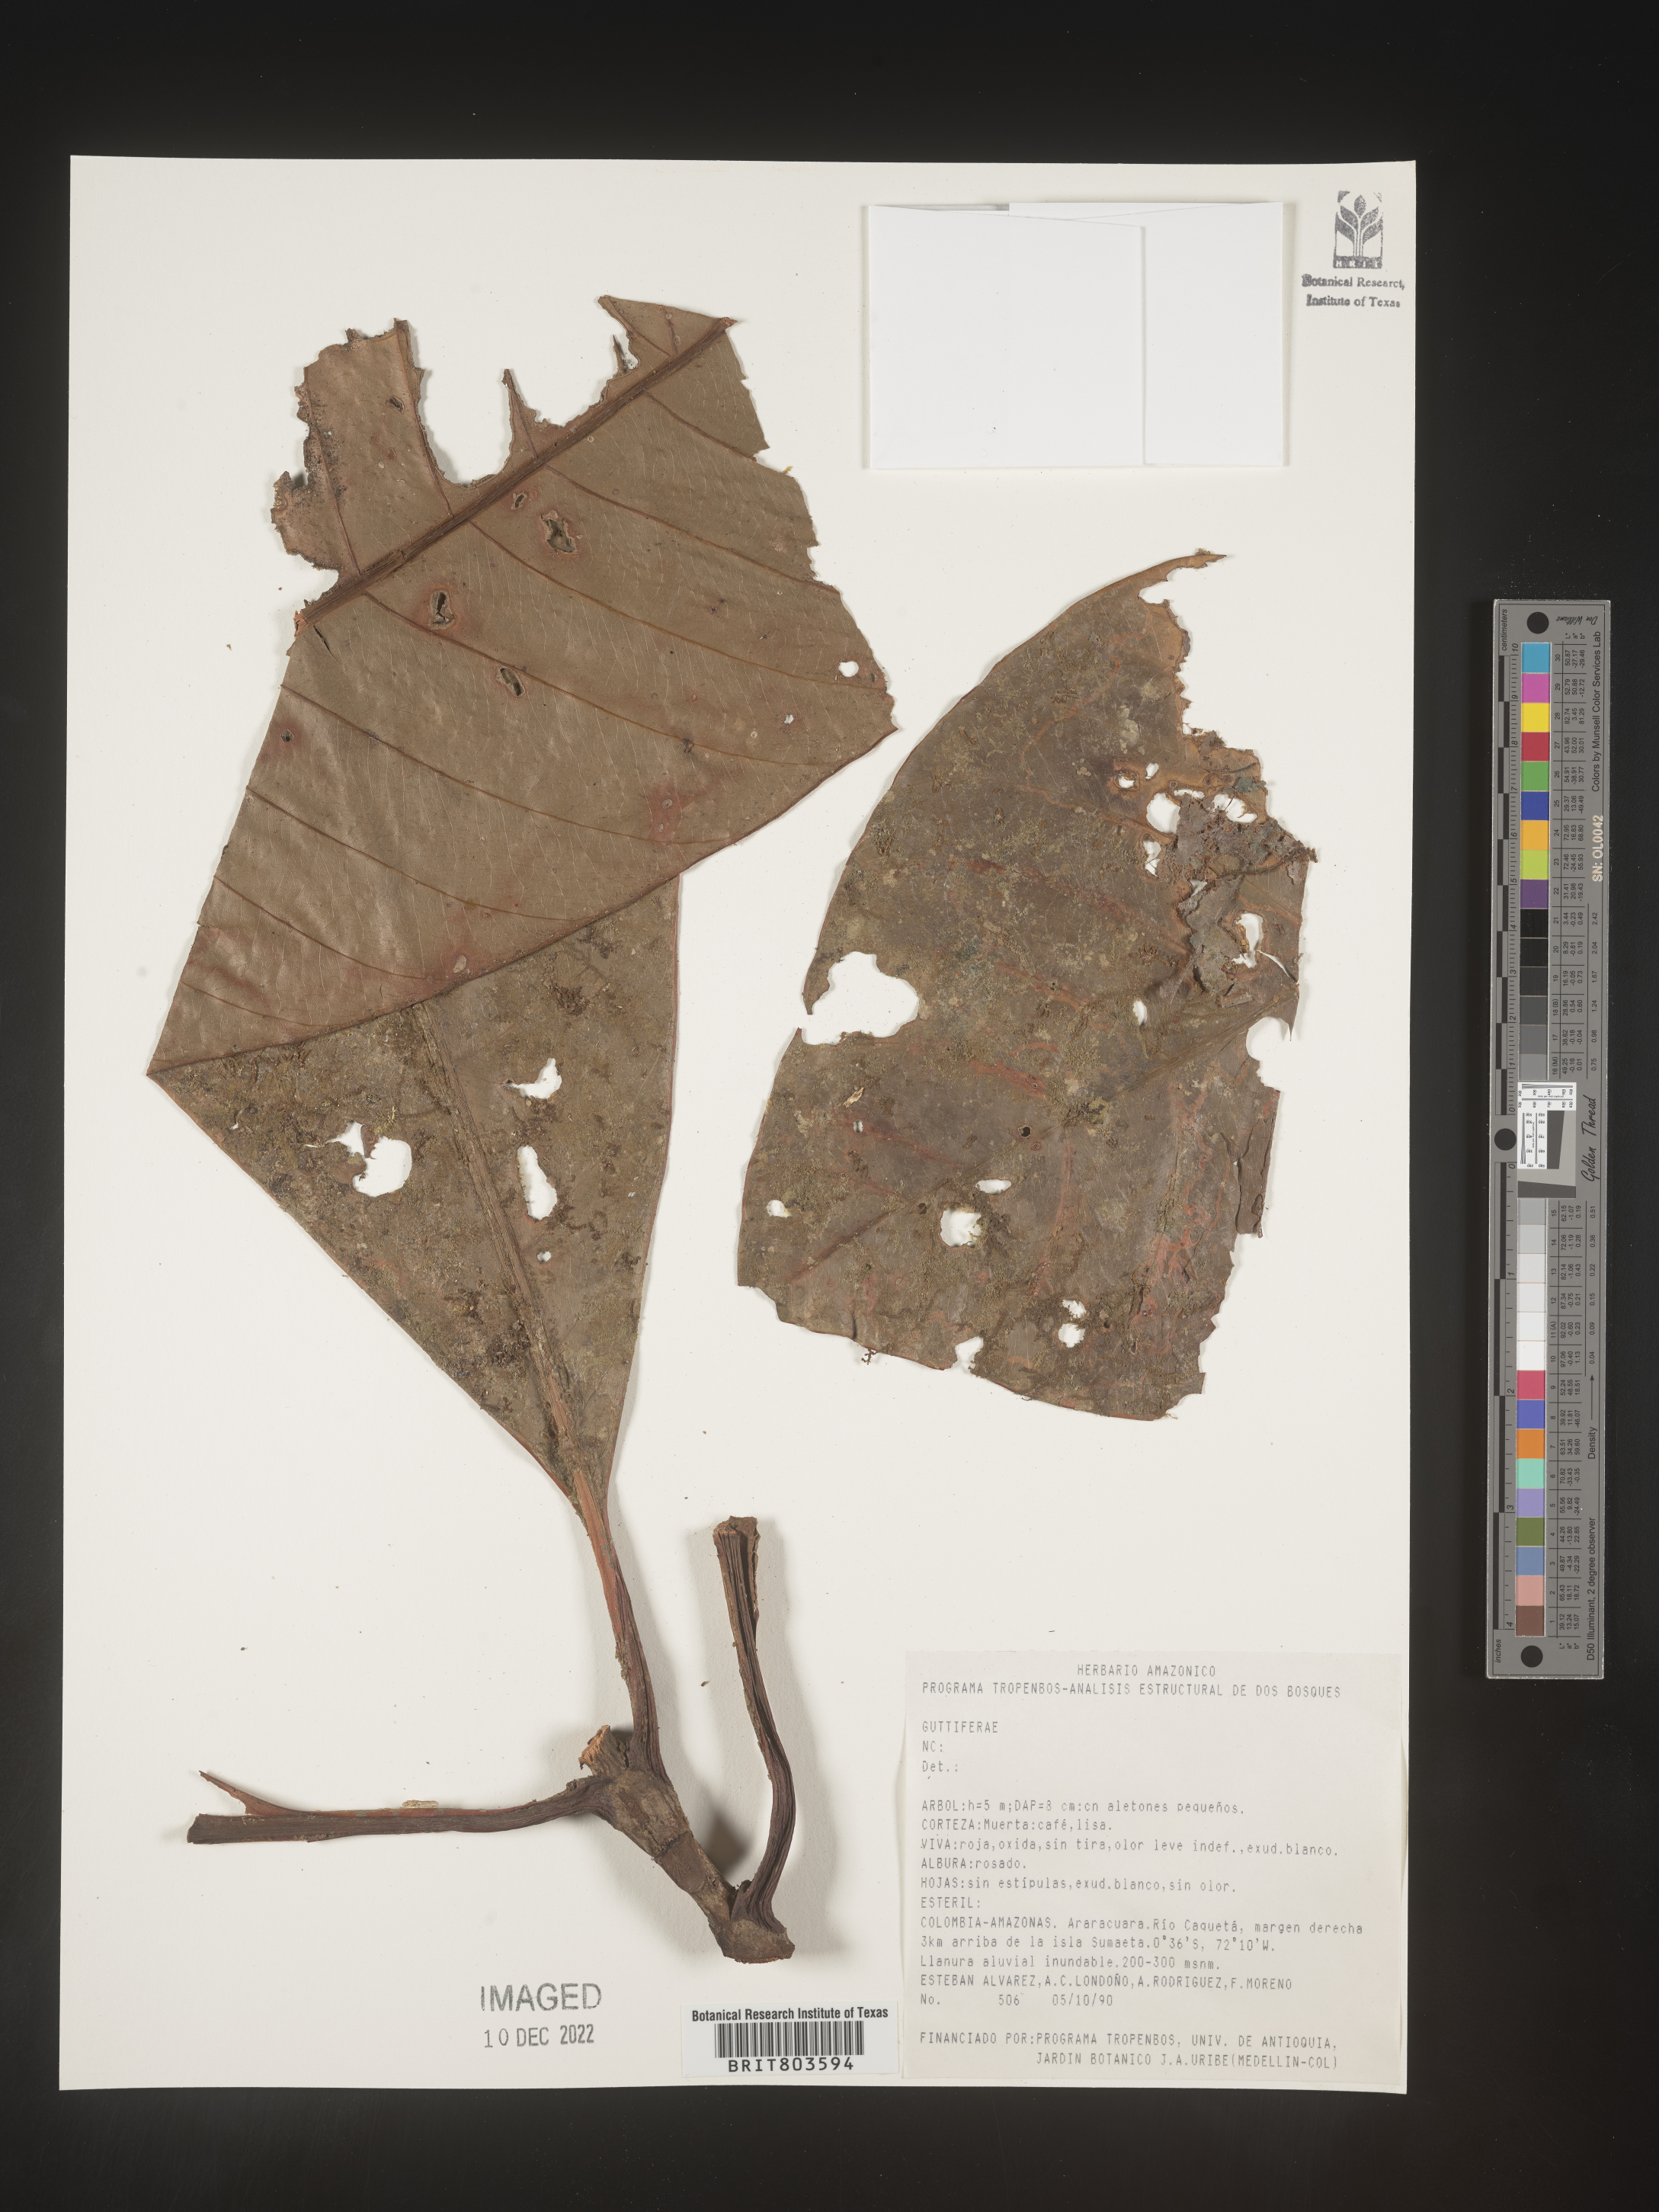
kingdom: Plantae
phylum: Tracheophyta
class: Magnoliopsida
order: Malpighiales
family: Clusiaceae
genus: Tovomita
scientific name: Tovomita
